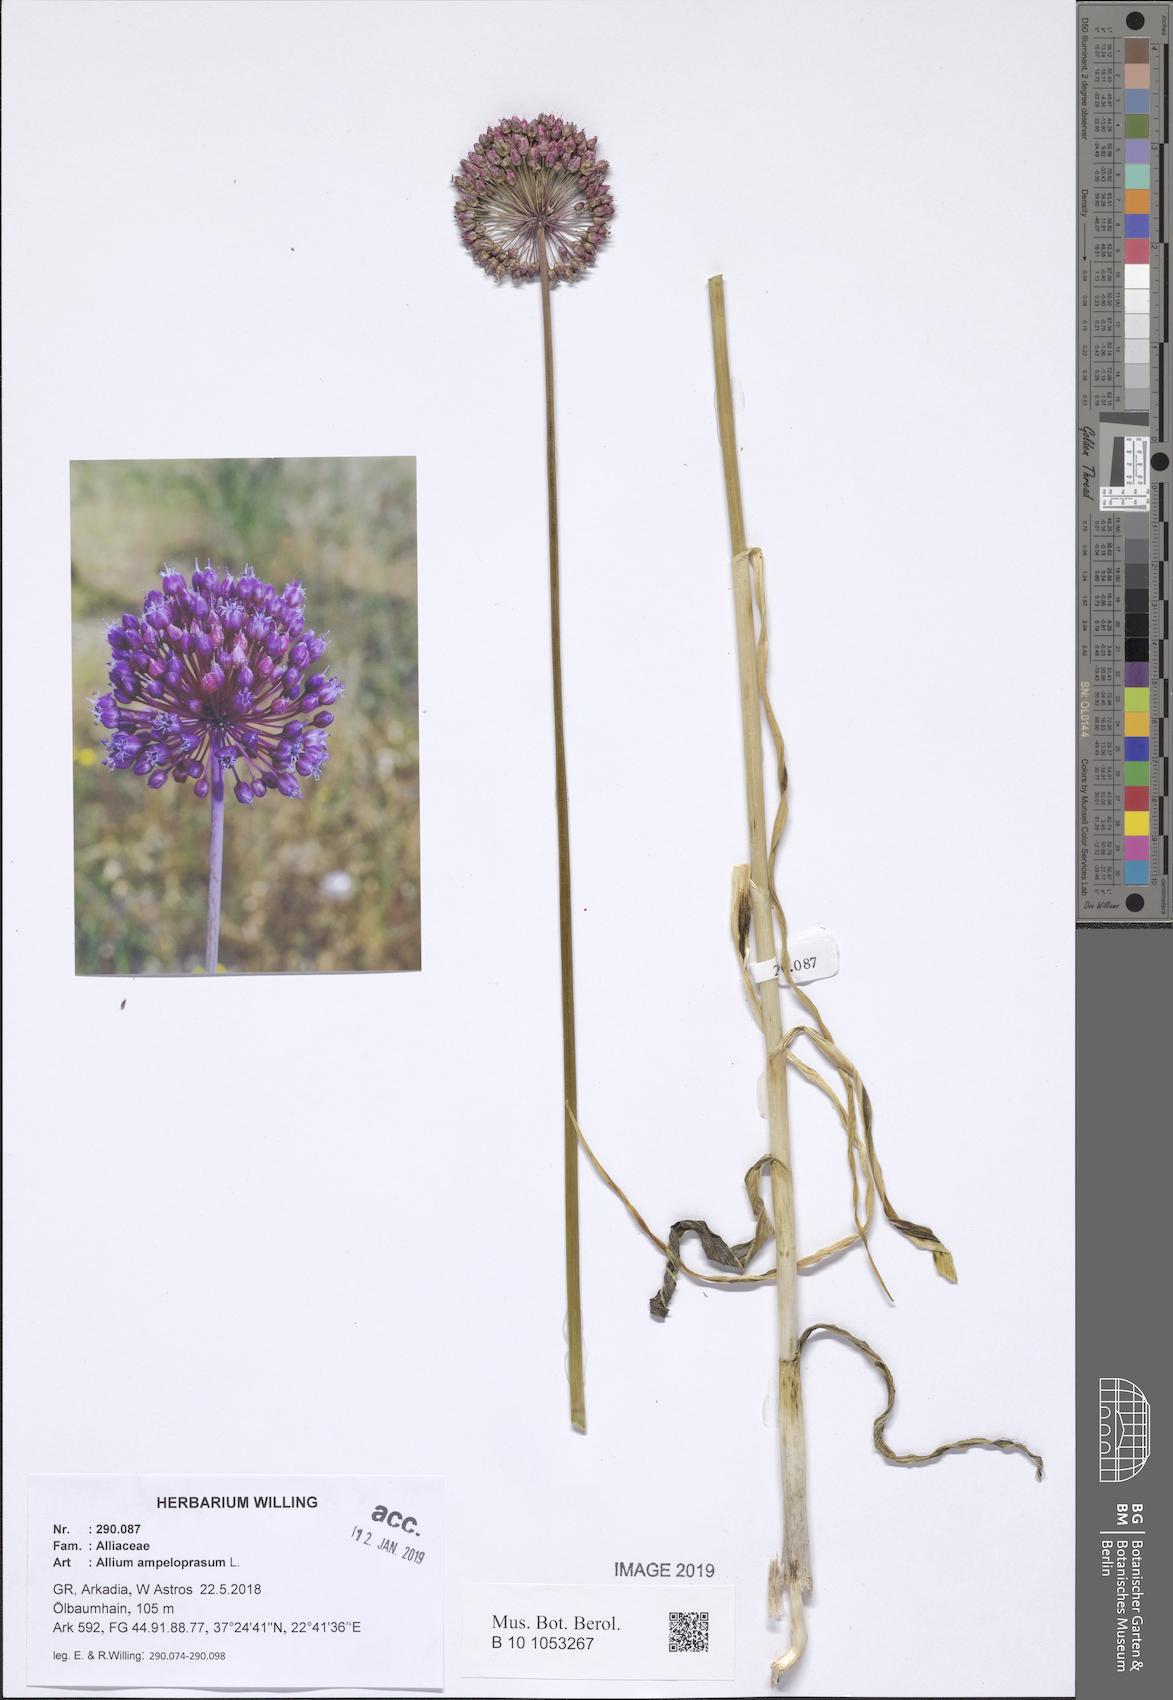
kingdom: Plantae
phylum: Tracheophyta
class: Liliopsida
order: Asparagales
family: Amaryllidaceae
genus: Allium
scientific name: Allium ampeloprasum
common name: Wild leek
